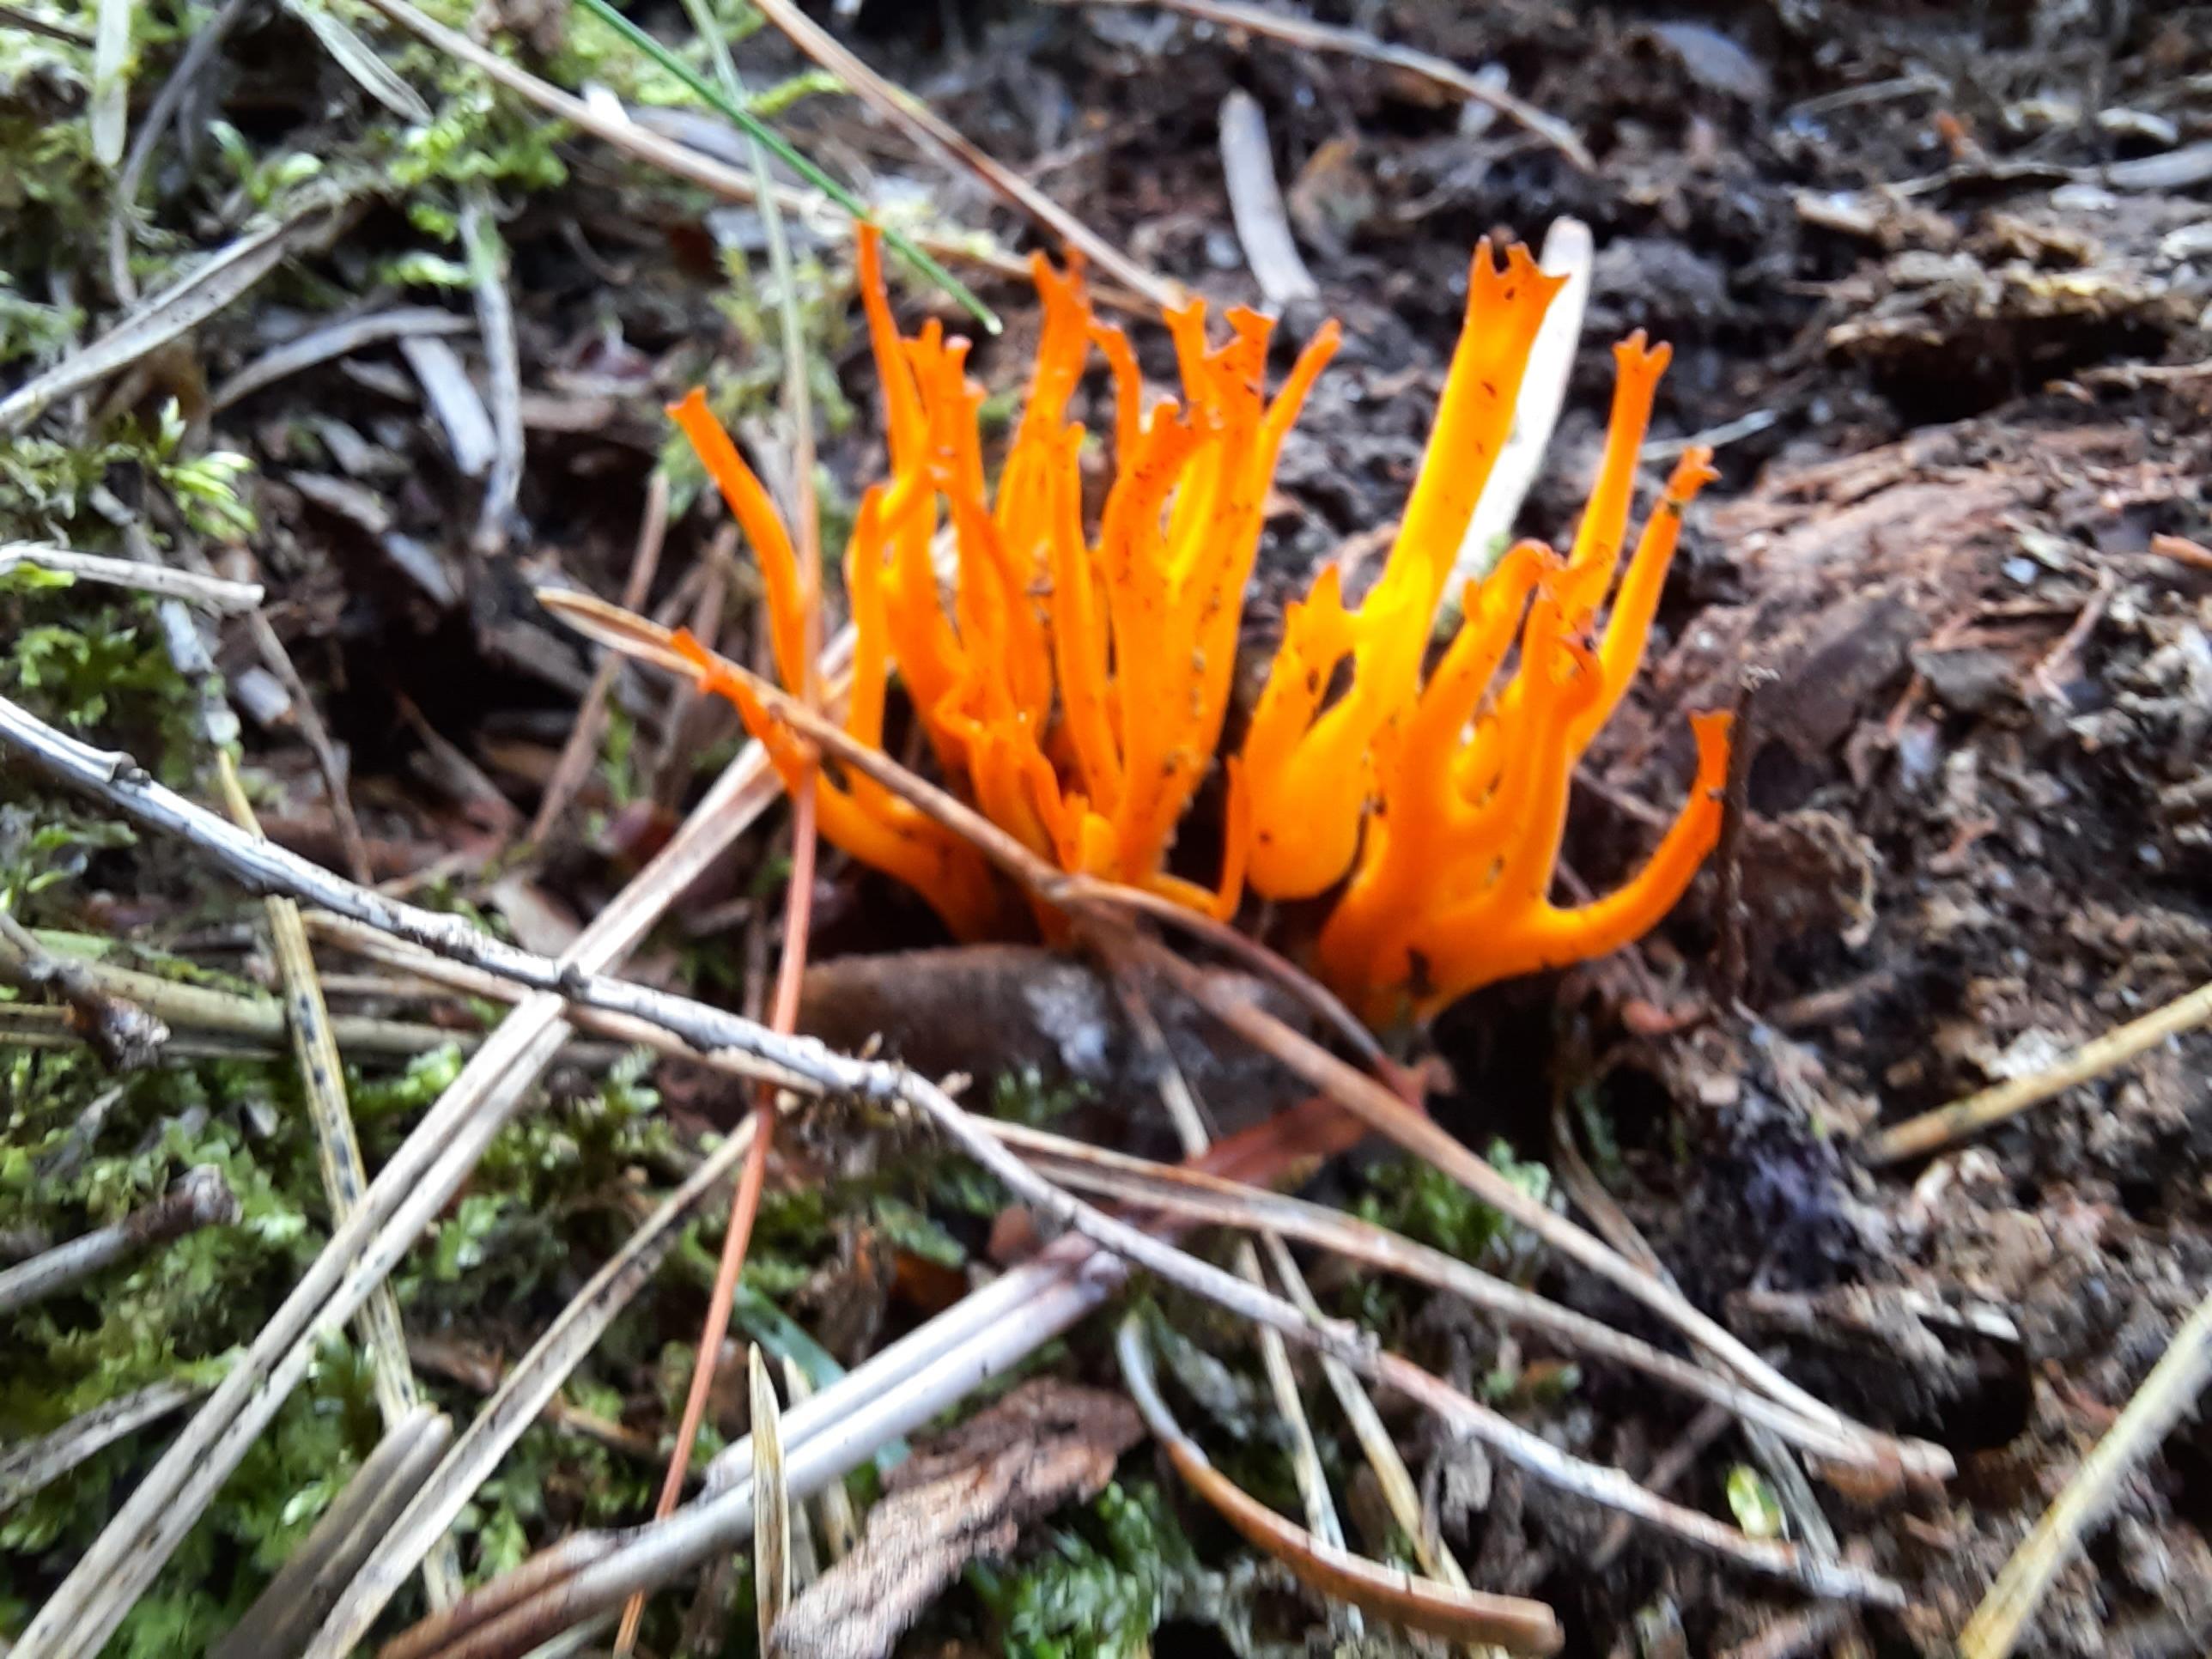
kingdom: Fungi
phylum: Basidiomycota
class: Dacrymycetes
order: Dacrymycetales
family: Dacrymycetaceae
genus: Calocera
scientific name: Calocera viscosa
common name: almindelig guldgaffel
